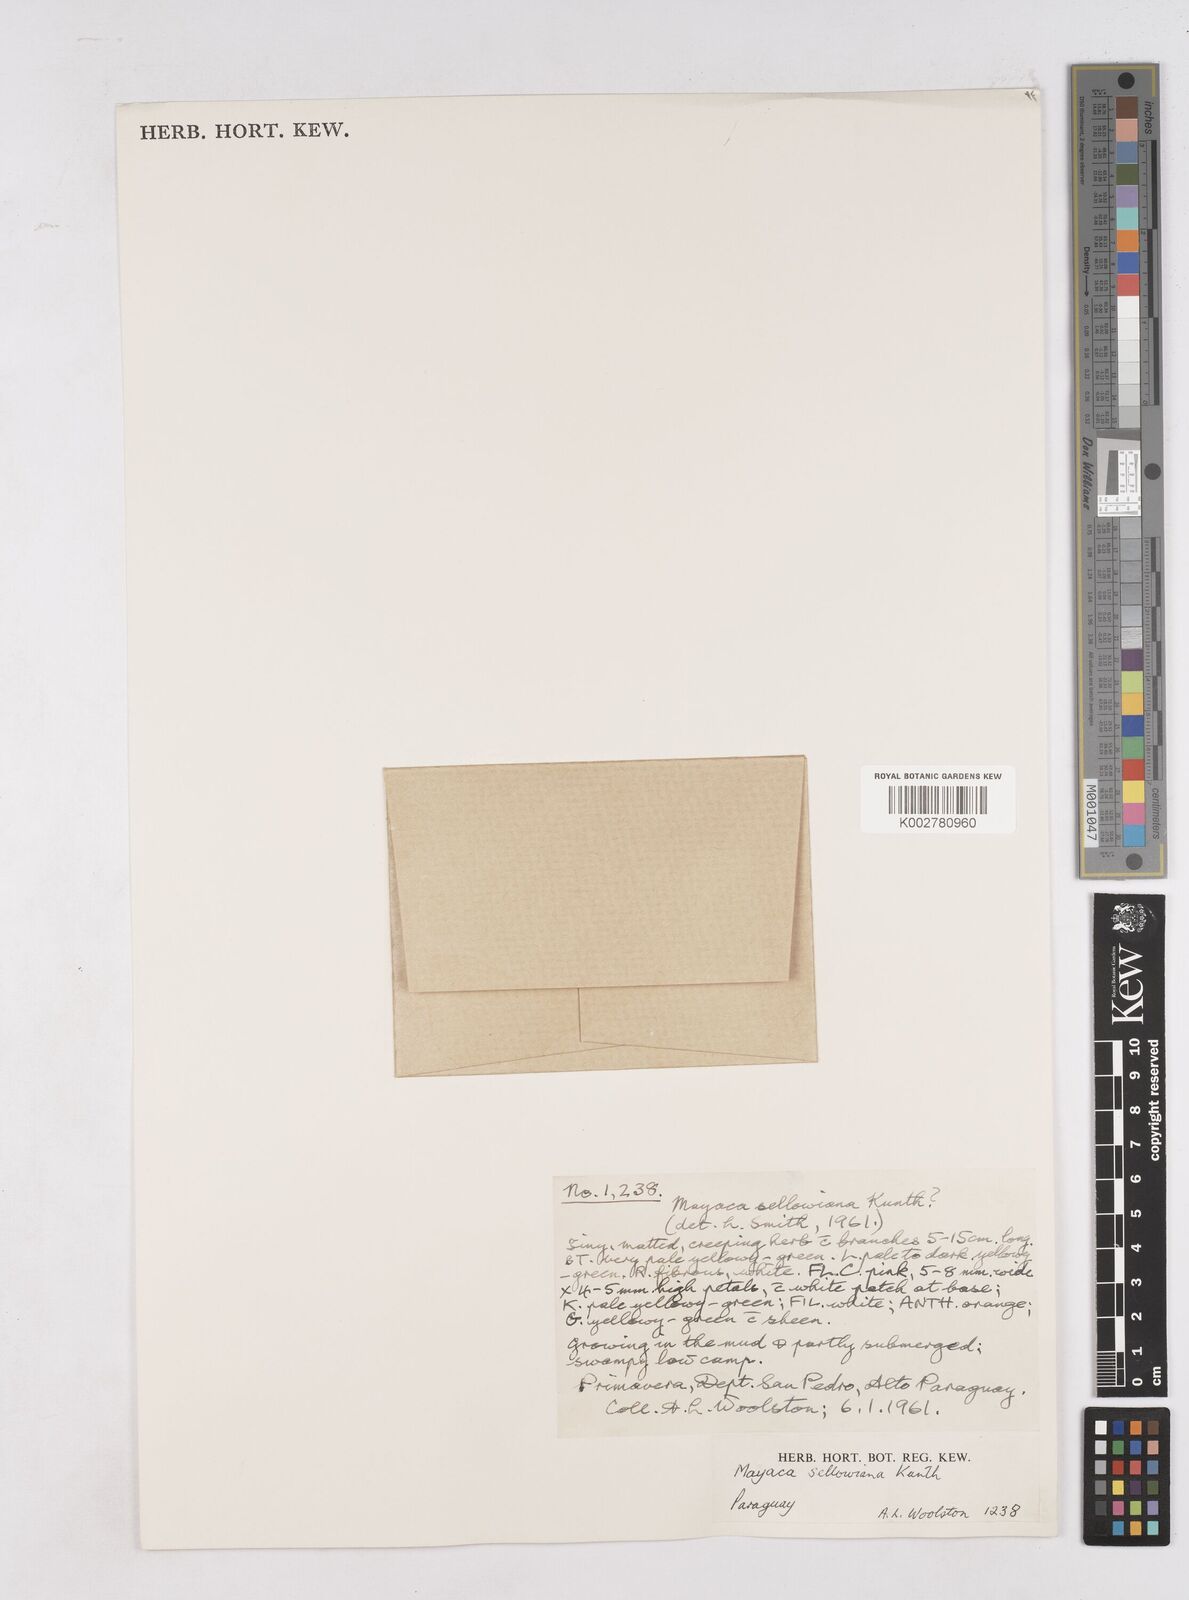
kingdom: Plantae
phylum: Tracheophyta
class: Liliopsida
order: Poales
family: Mayacaceae
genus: Mayaca
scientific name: Mayaca sellowiana
